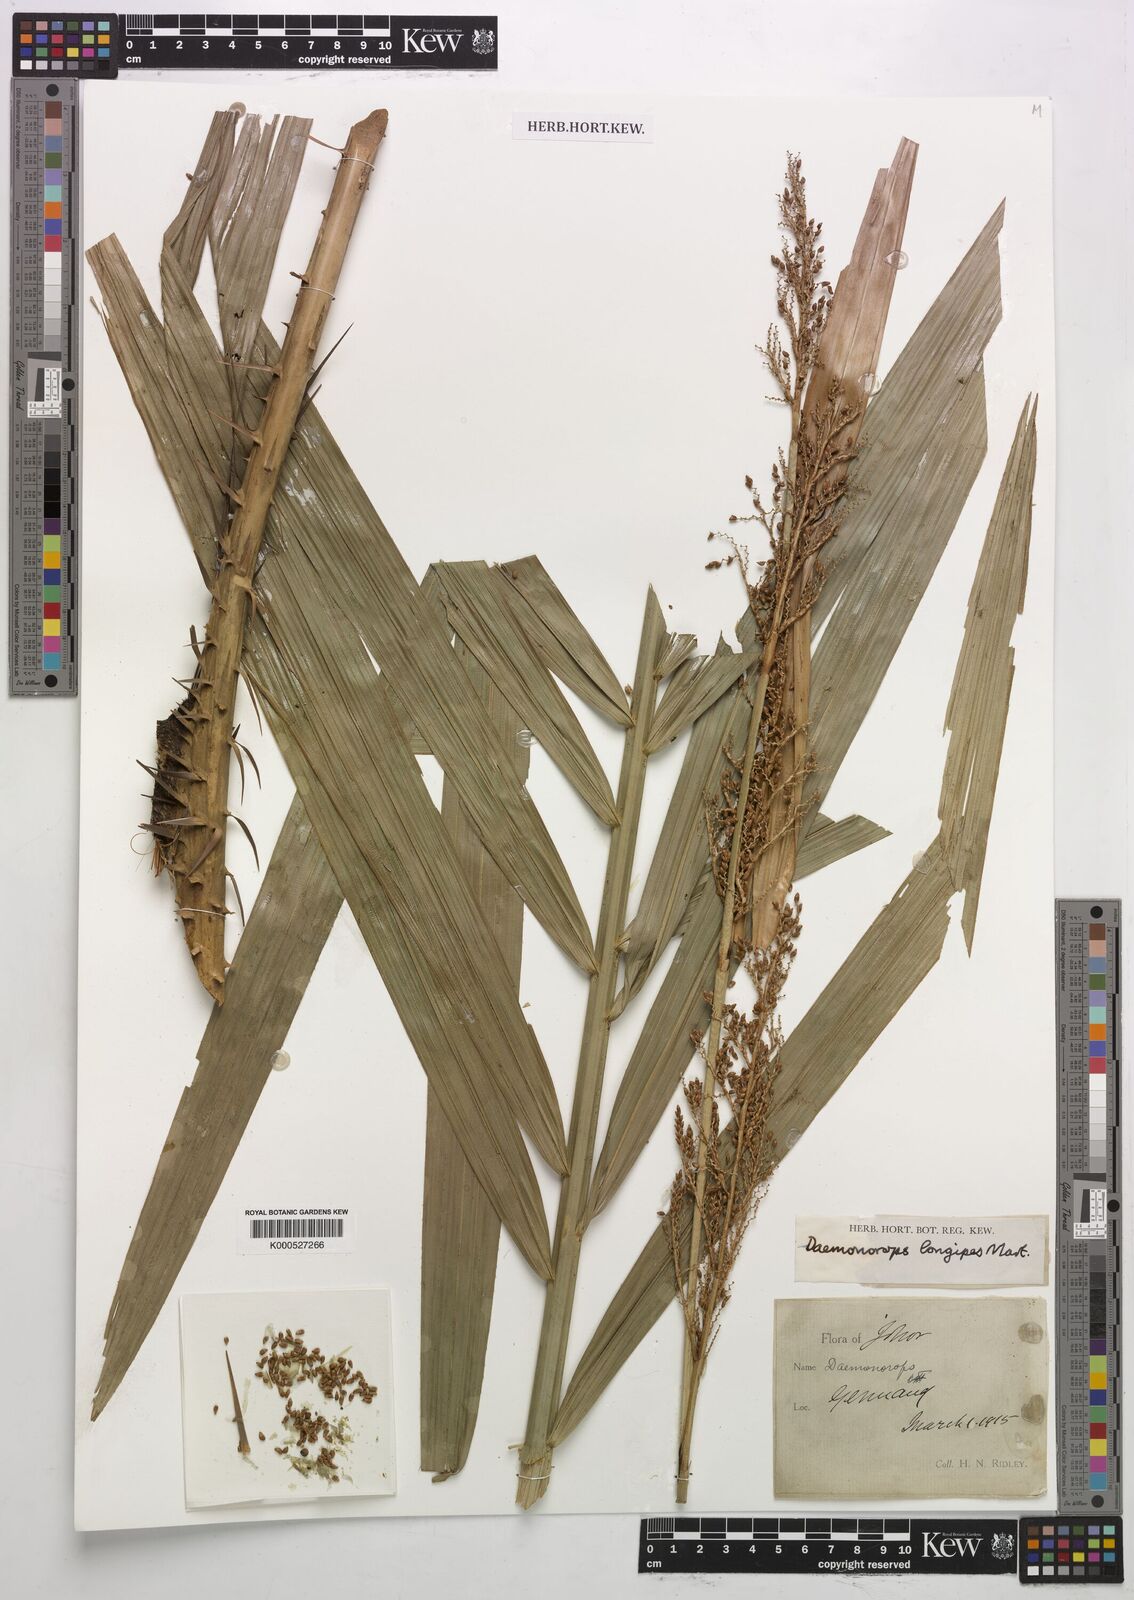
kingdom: Plantae
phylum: Tracheophyta
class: Liliopsida
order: Arecales
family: Arecaceae
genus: Calamus
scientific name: Calamus longipes
